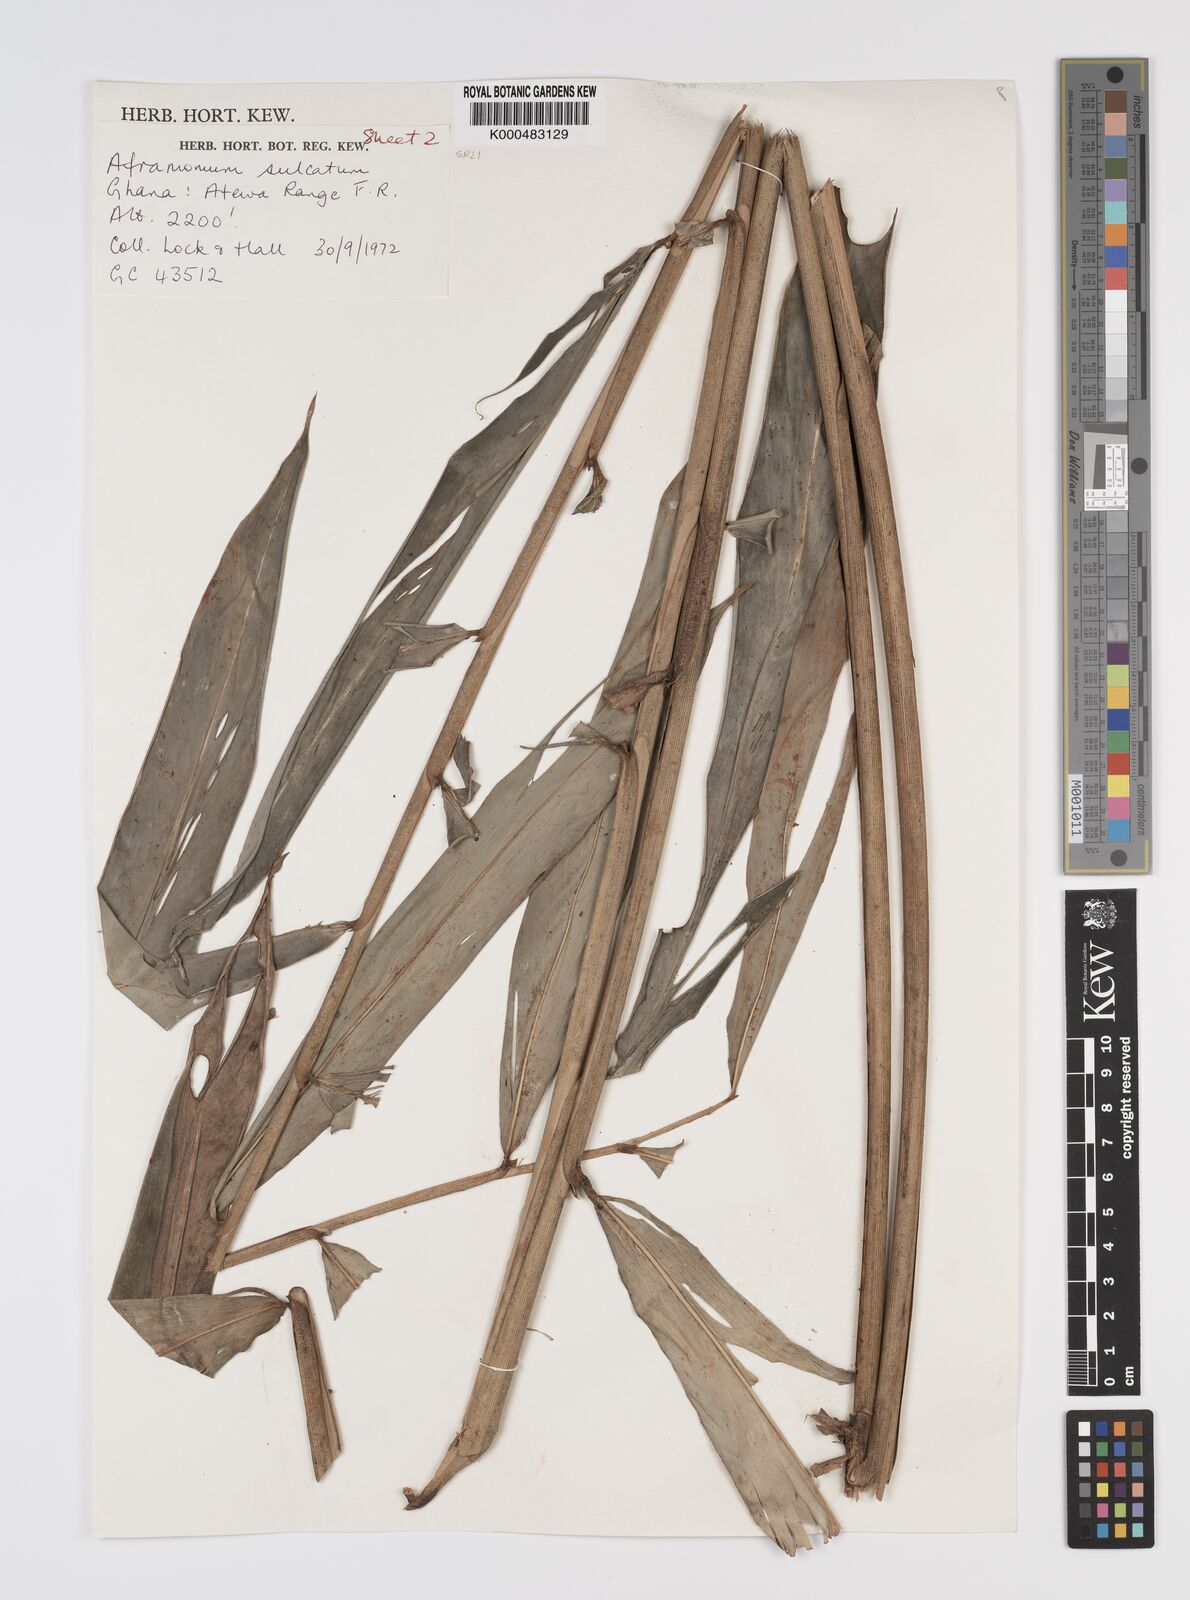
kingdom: Plantae
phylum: Tracheophyta
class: Liliopsida
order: Zingiberales
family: Zingiberaceae
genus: Aframomum
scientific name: Aframomum sulcatum
